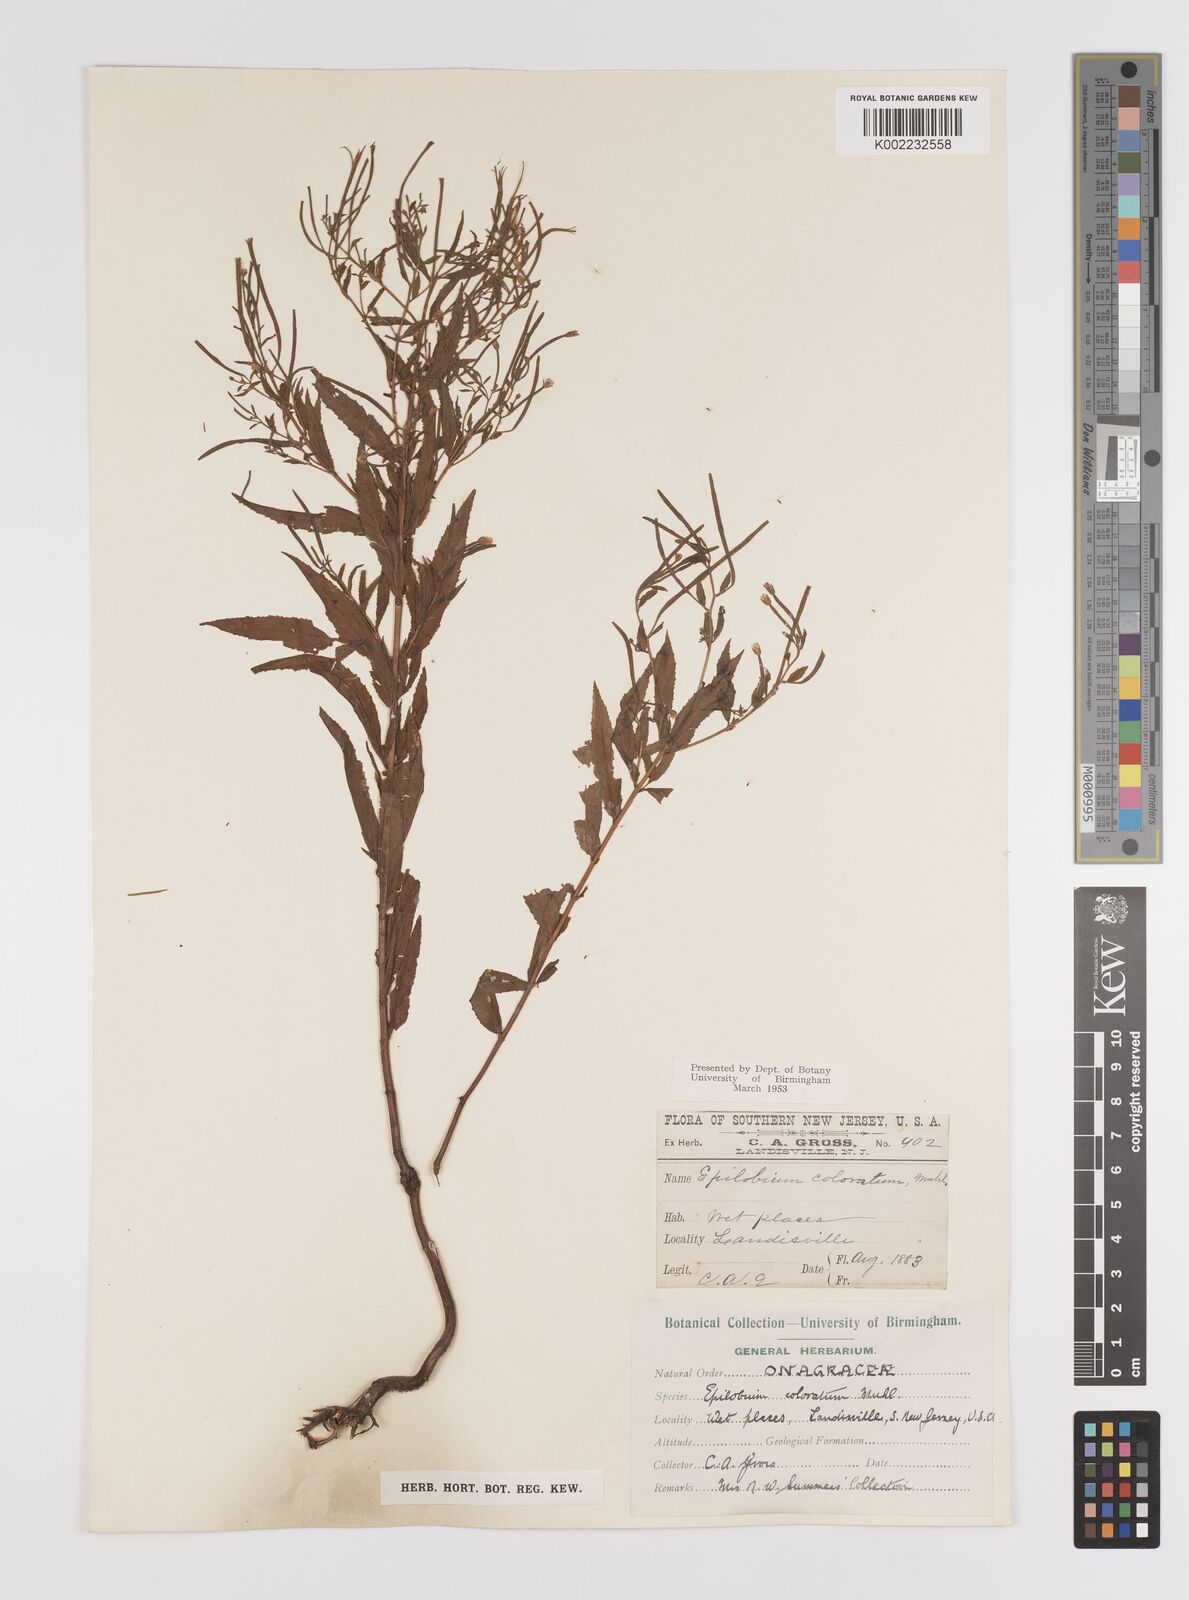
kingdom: Plantae
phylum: Tracheophyta
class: Magnoliopsida
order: Myrtales
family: Onagraceae
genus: Epilobium
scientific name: Epilobium coloratum
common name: Bronze willowherb
